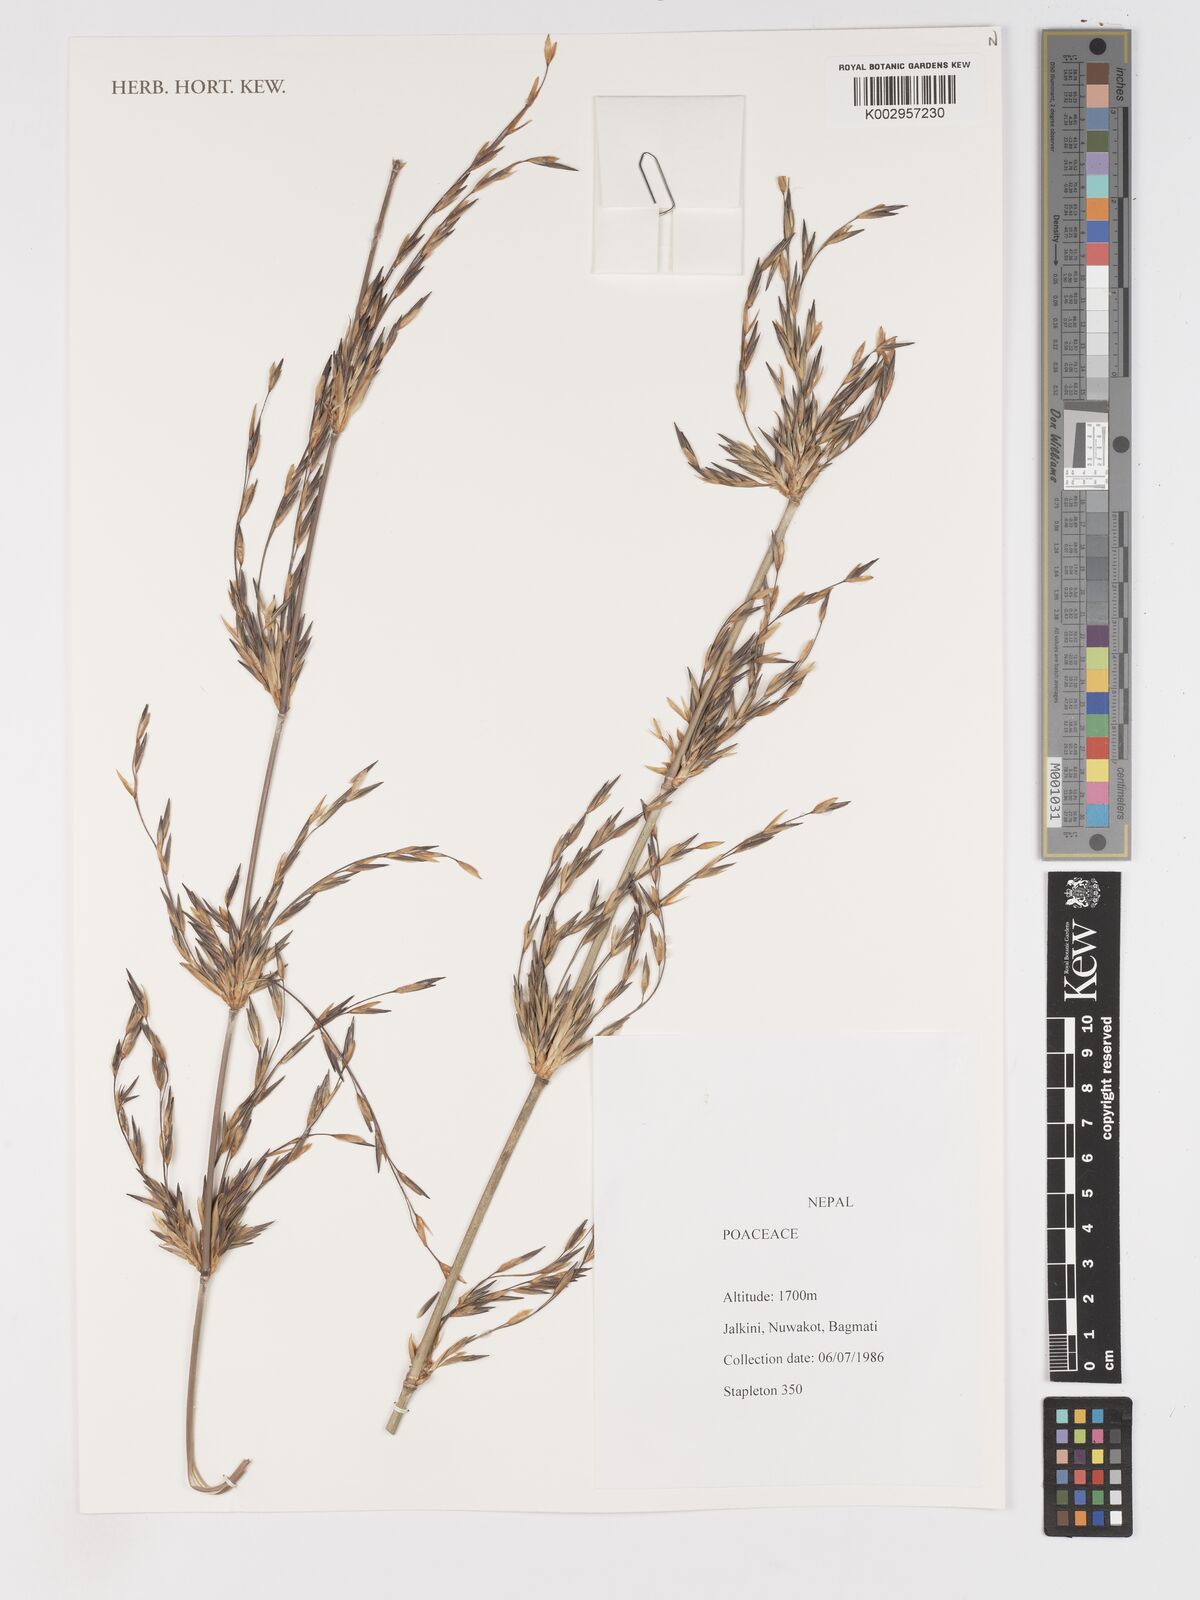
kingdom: Plantae
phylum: Tracheophyta
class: Liliopsida
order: Poales
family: Poaceae
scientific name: Poaceae
